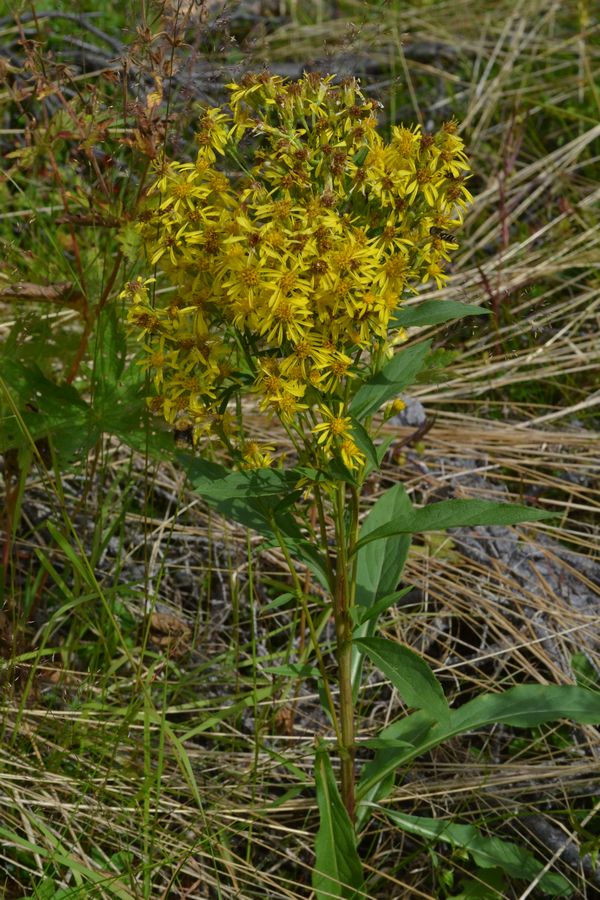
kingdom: Plantae
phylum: Tracheophyta
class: Magnoliopsida
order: Asterales
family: Asteraceae
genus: Solidago
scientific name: Solidago virgaurea
